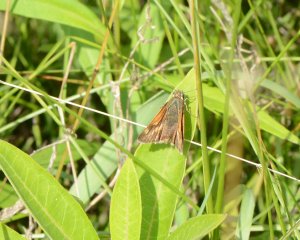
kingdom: Animalia
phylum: Arthropoda
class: Insecta
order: Lepidoptera
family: Hesperiidae
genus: Polites
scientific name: Polites
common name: Long Dash Skipper
